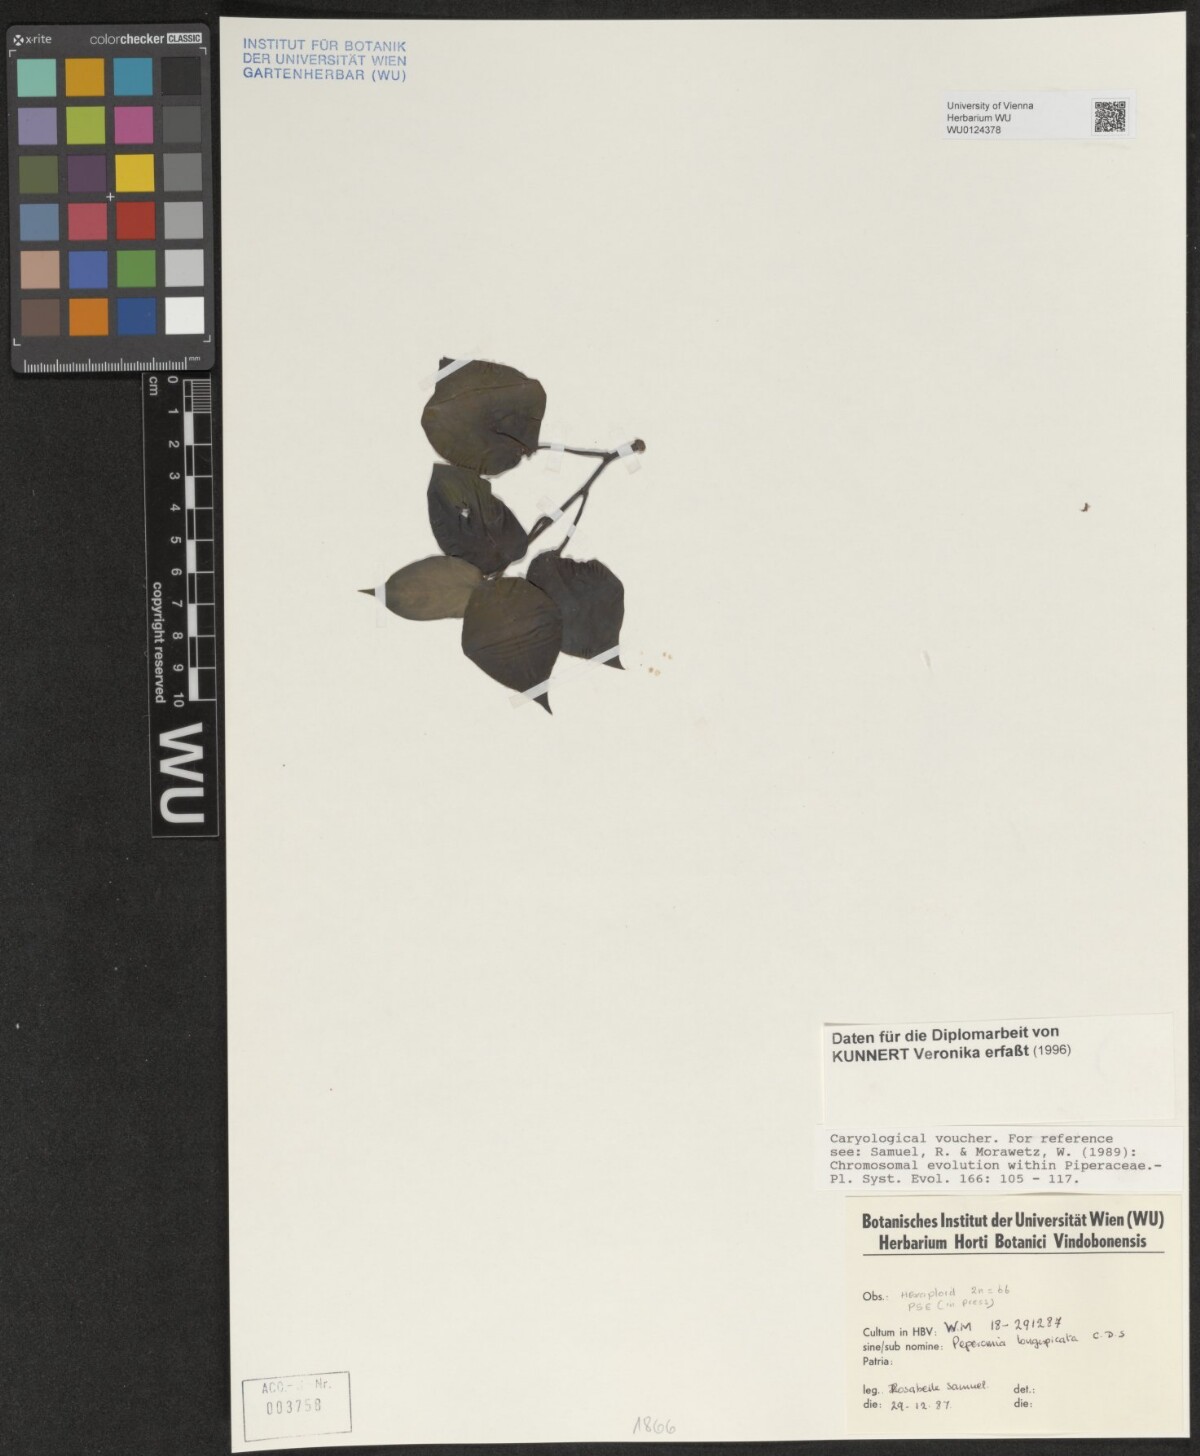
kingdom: Plantae
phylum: Tracheophyta
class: Magnoliopsida
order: Piperales
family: Piperaceae
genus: Peperomia
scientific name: Peperomia angustata
